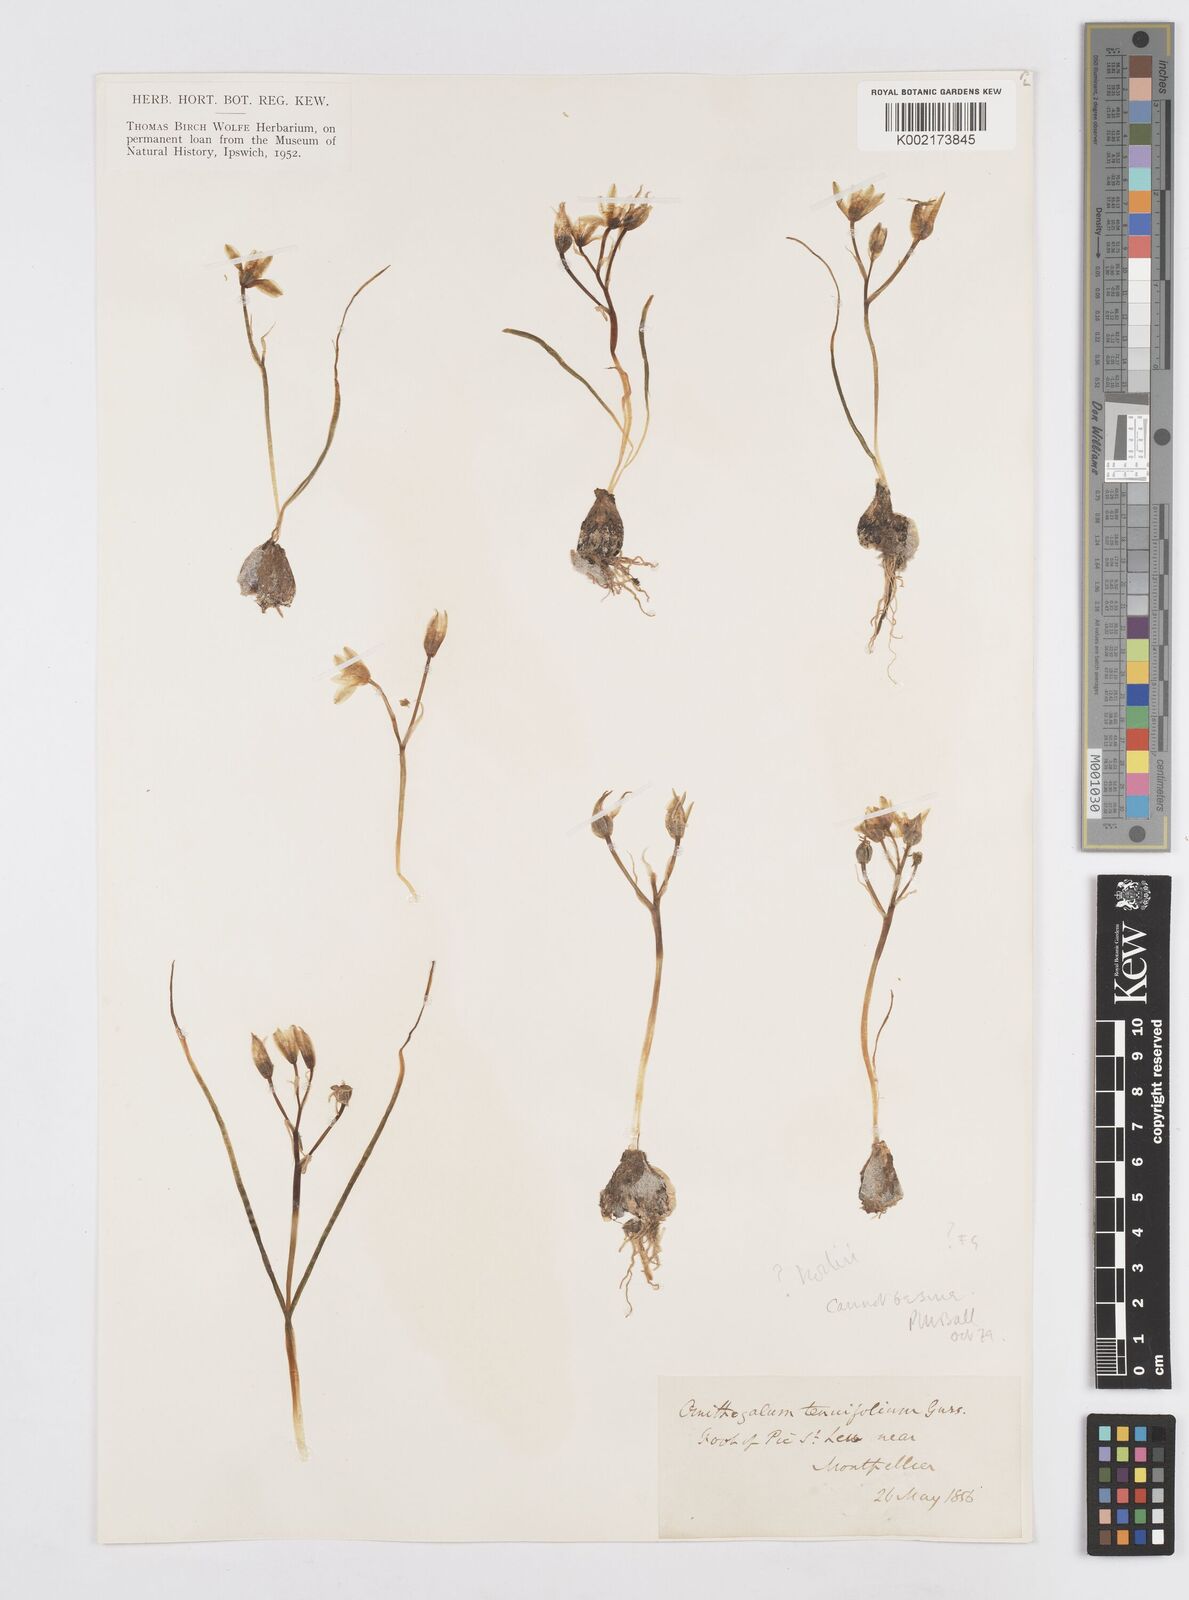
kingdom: Plantae
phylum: Tracheophyta
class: Liliopsida
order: Asparagales
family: Asparagaceae
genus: Ornithogalum
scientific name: Ornithogalum orthophyllum
